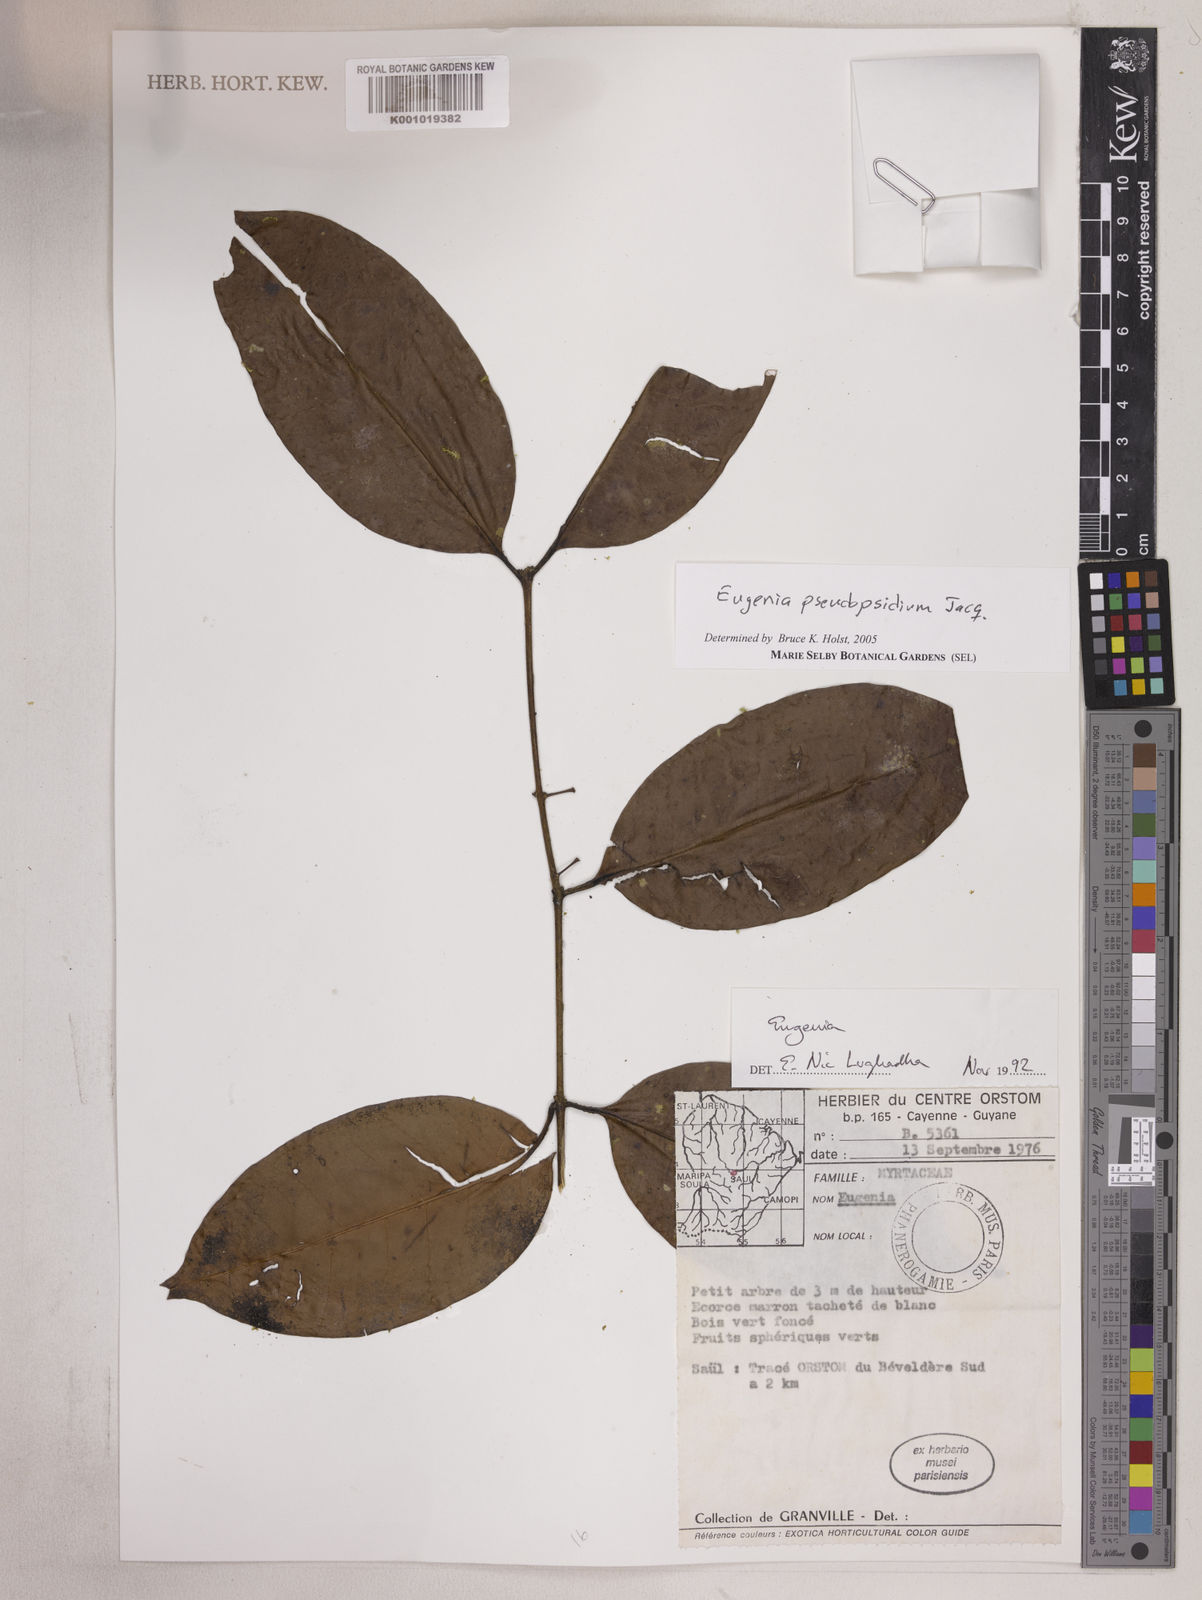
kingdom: Plantae
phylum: Tracheophyta
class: Magnoliopsida
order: Myrtales
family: Myrtaceae
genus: Eugenia
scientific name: Eugenia pseudopsidium
